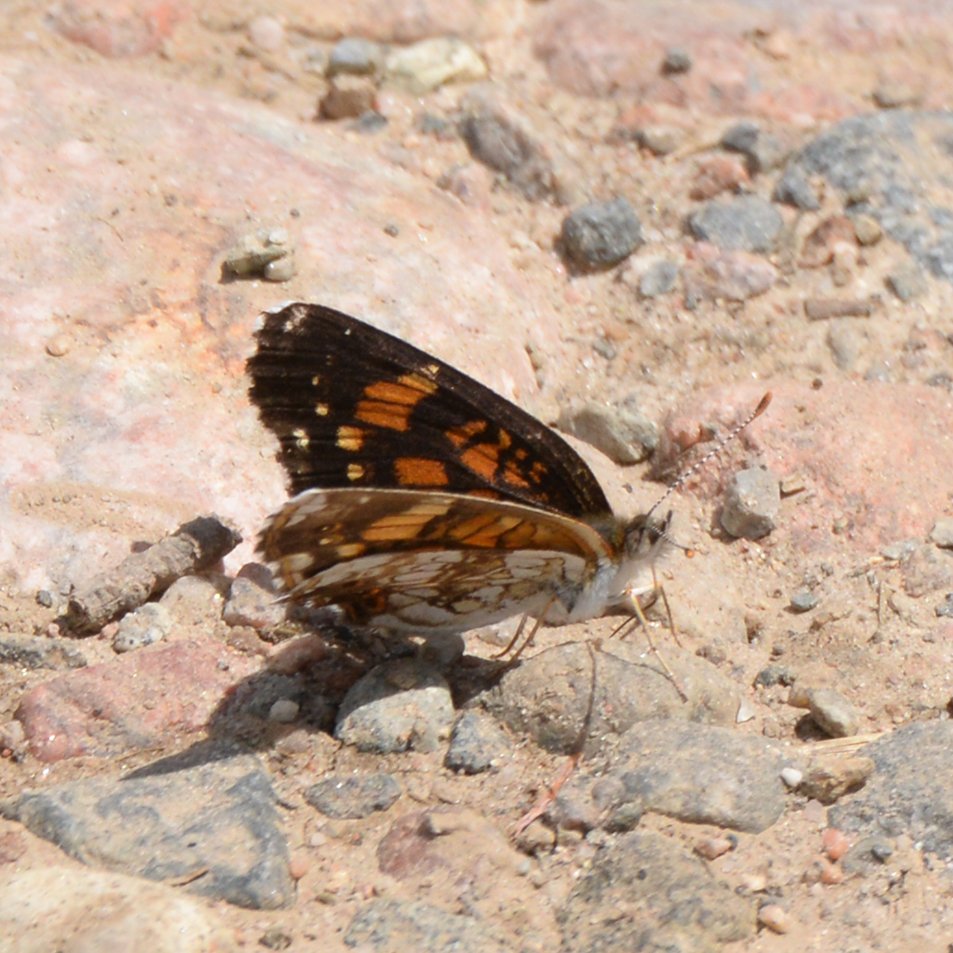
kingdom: Animalia
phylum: Arthropoda
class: Insecta
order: Lepidoptera
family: Nymphalidae
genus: Chlosyne
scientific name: Chlosyne nycteis
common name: Silvery Checkerspot
